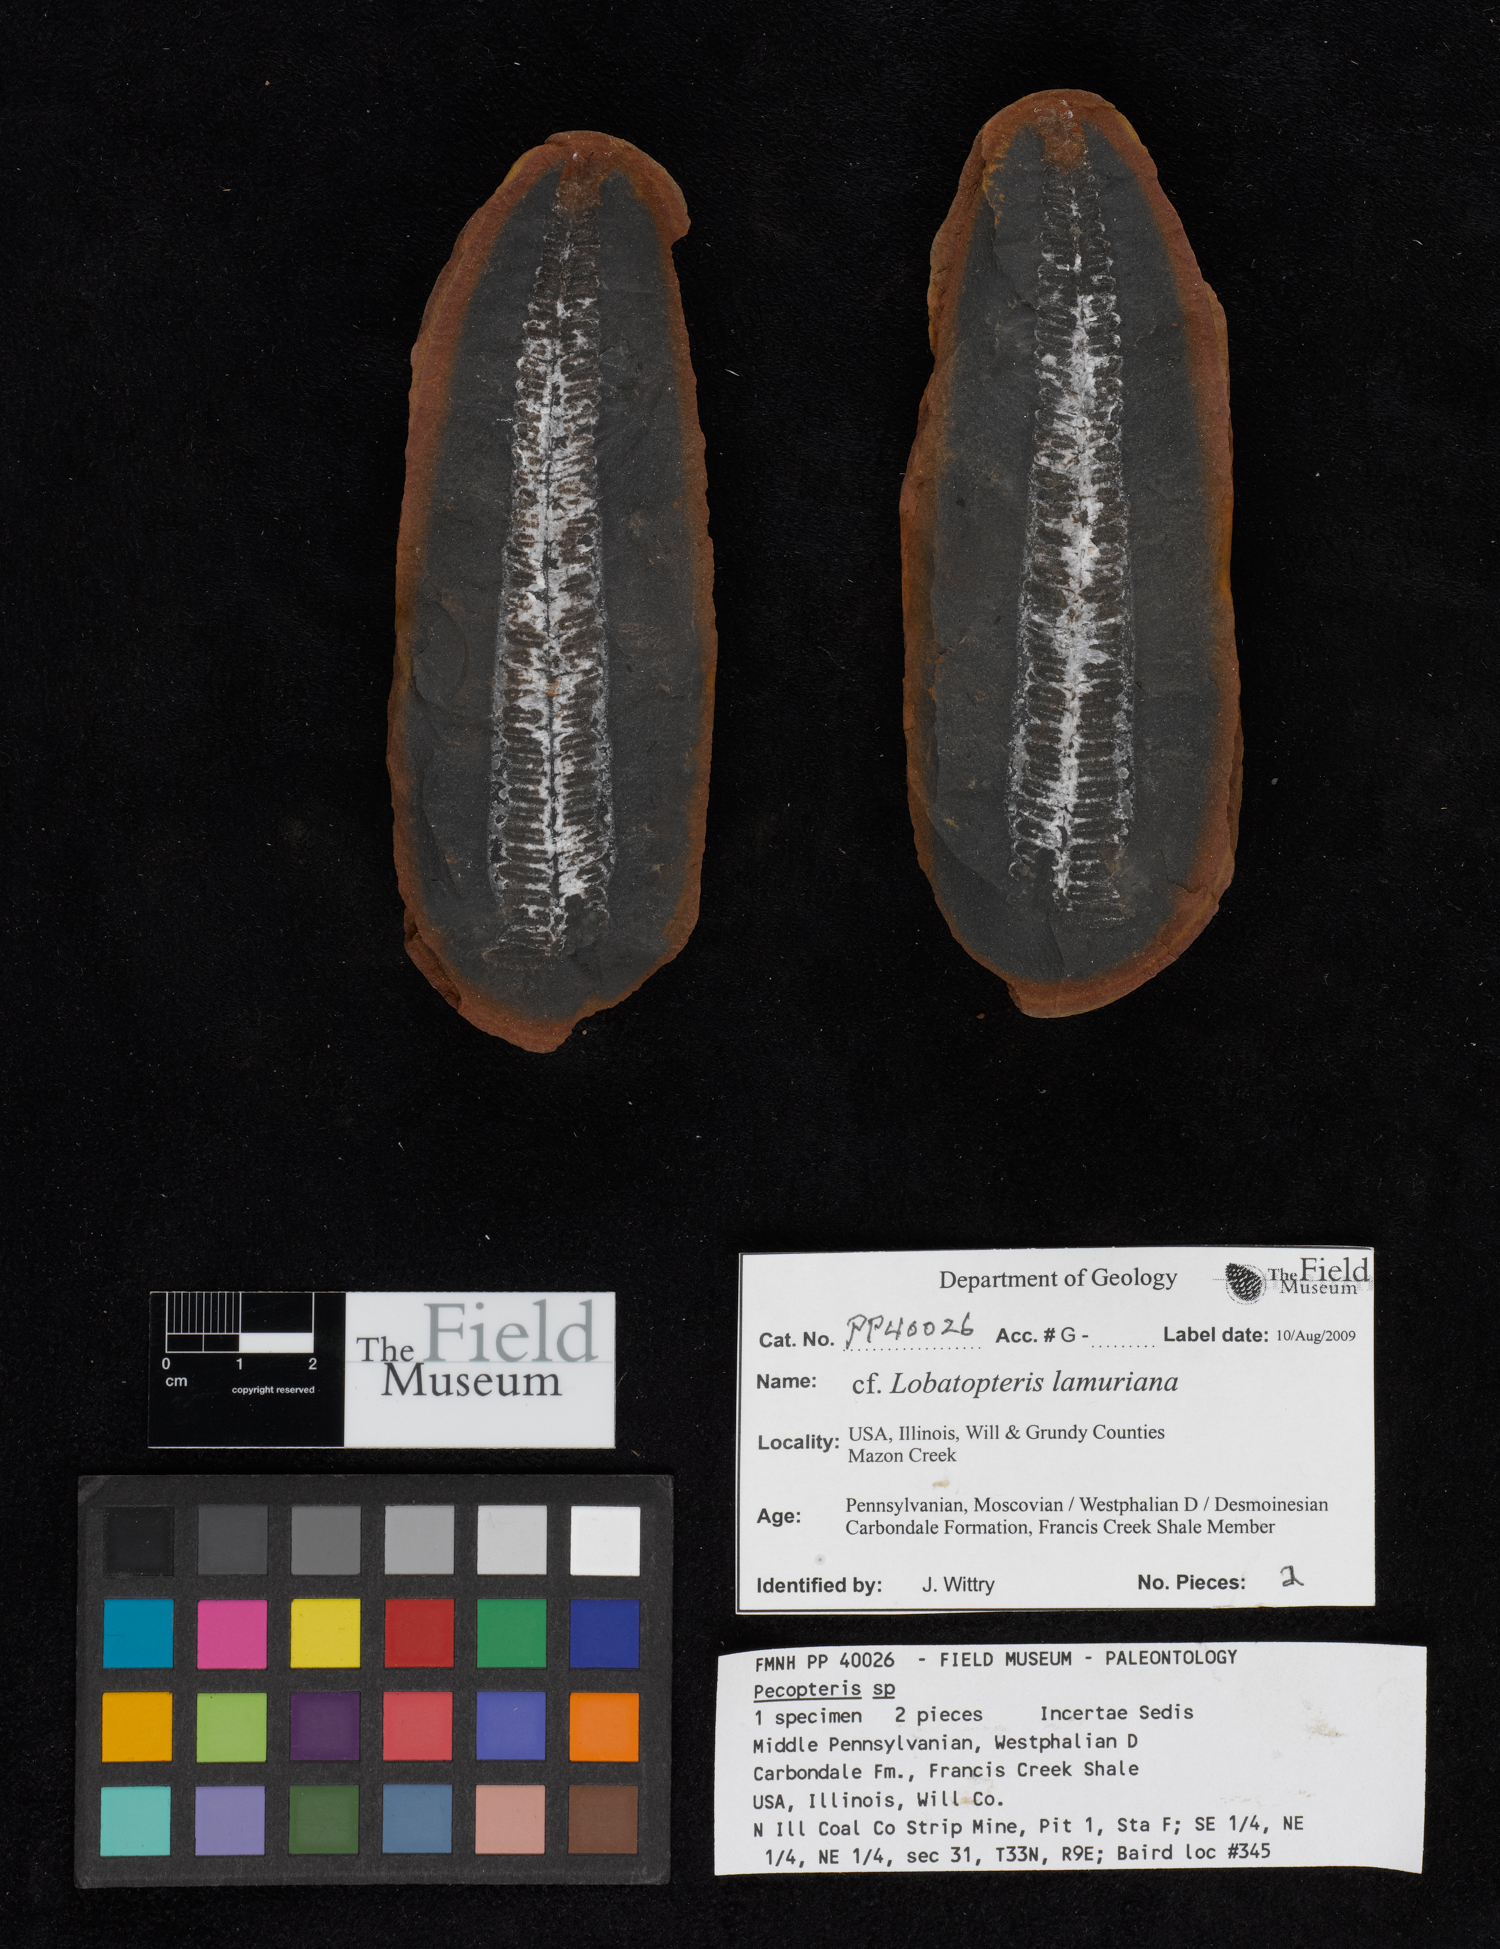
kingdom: Plantae
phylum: Tracheophyta
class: Polypodiopsida
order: Marattiales
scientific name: Marattiales
